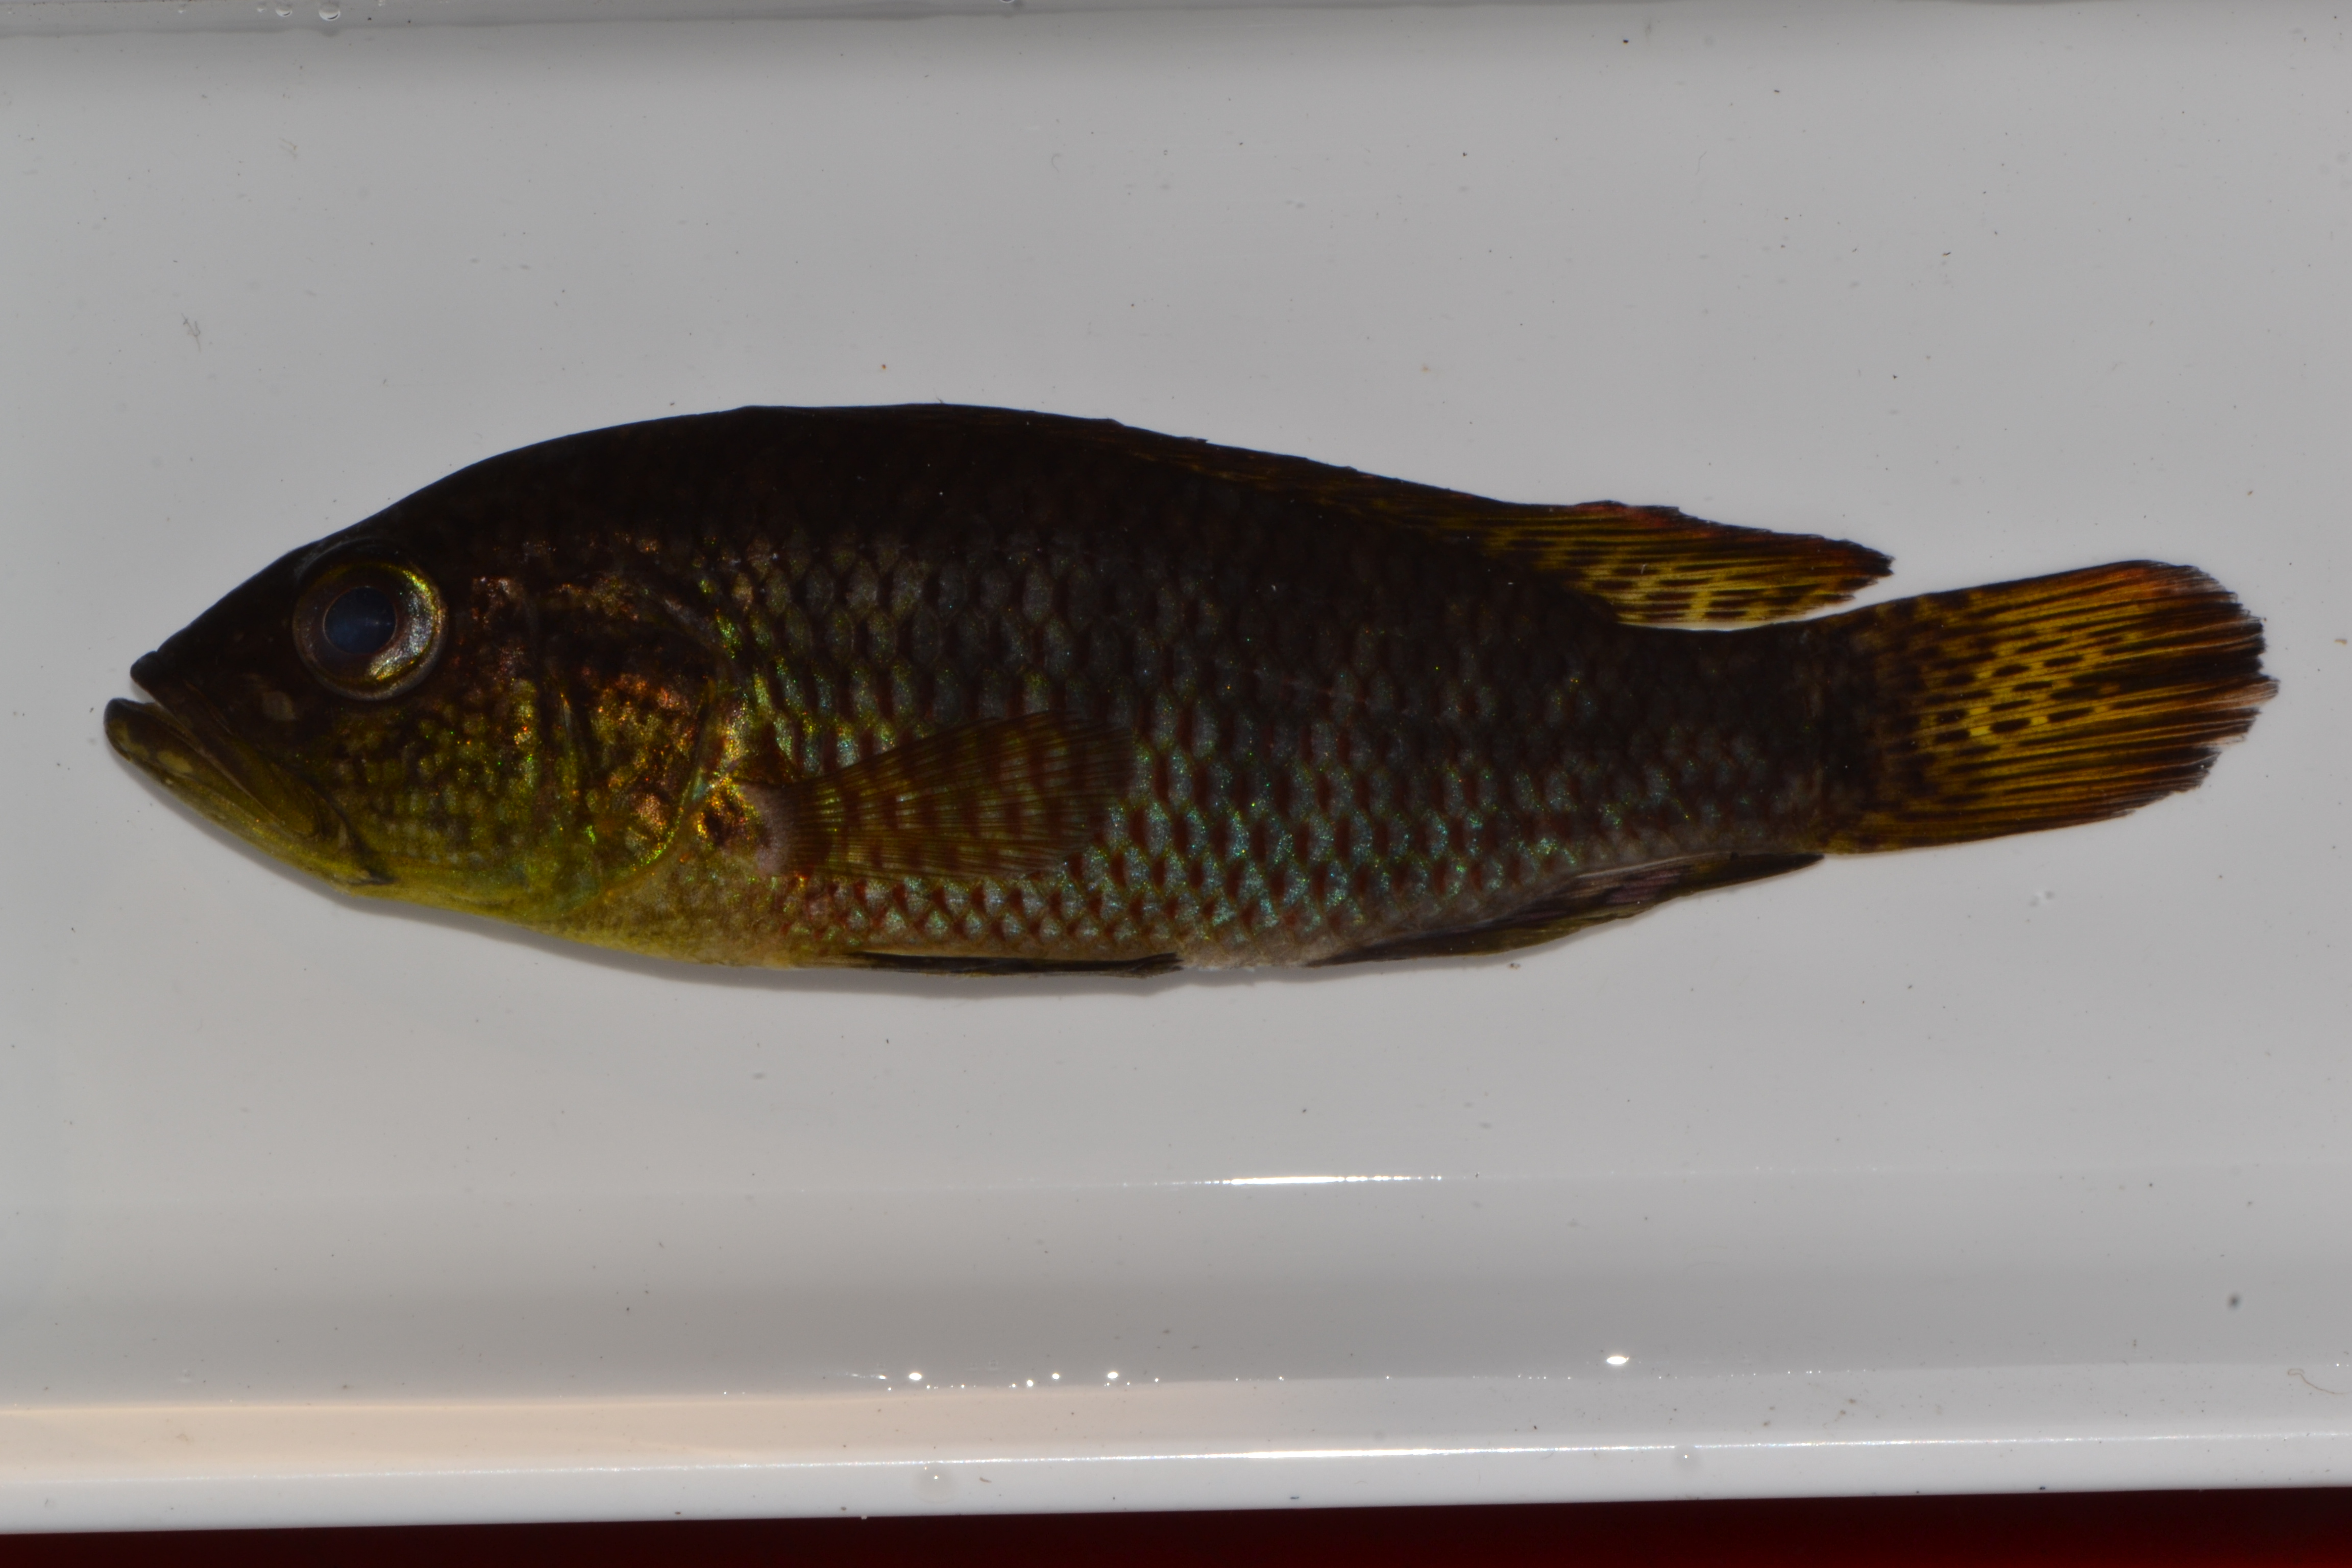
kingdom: Animalia
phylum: Chordata
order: Perciformes
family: Cichlidae
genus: Sargochromis
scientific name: Sargochromis
